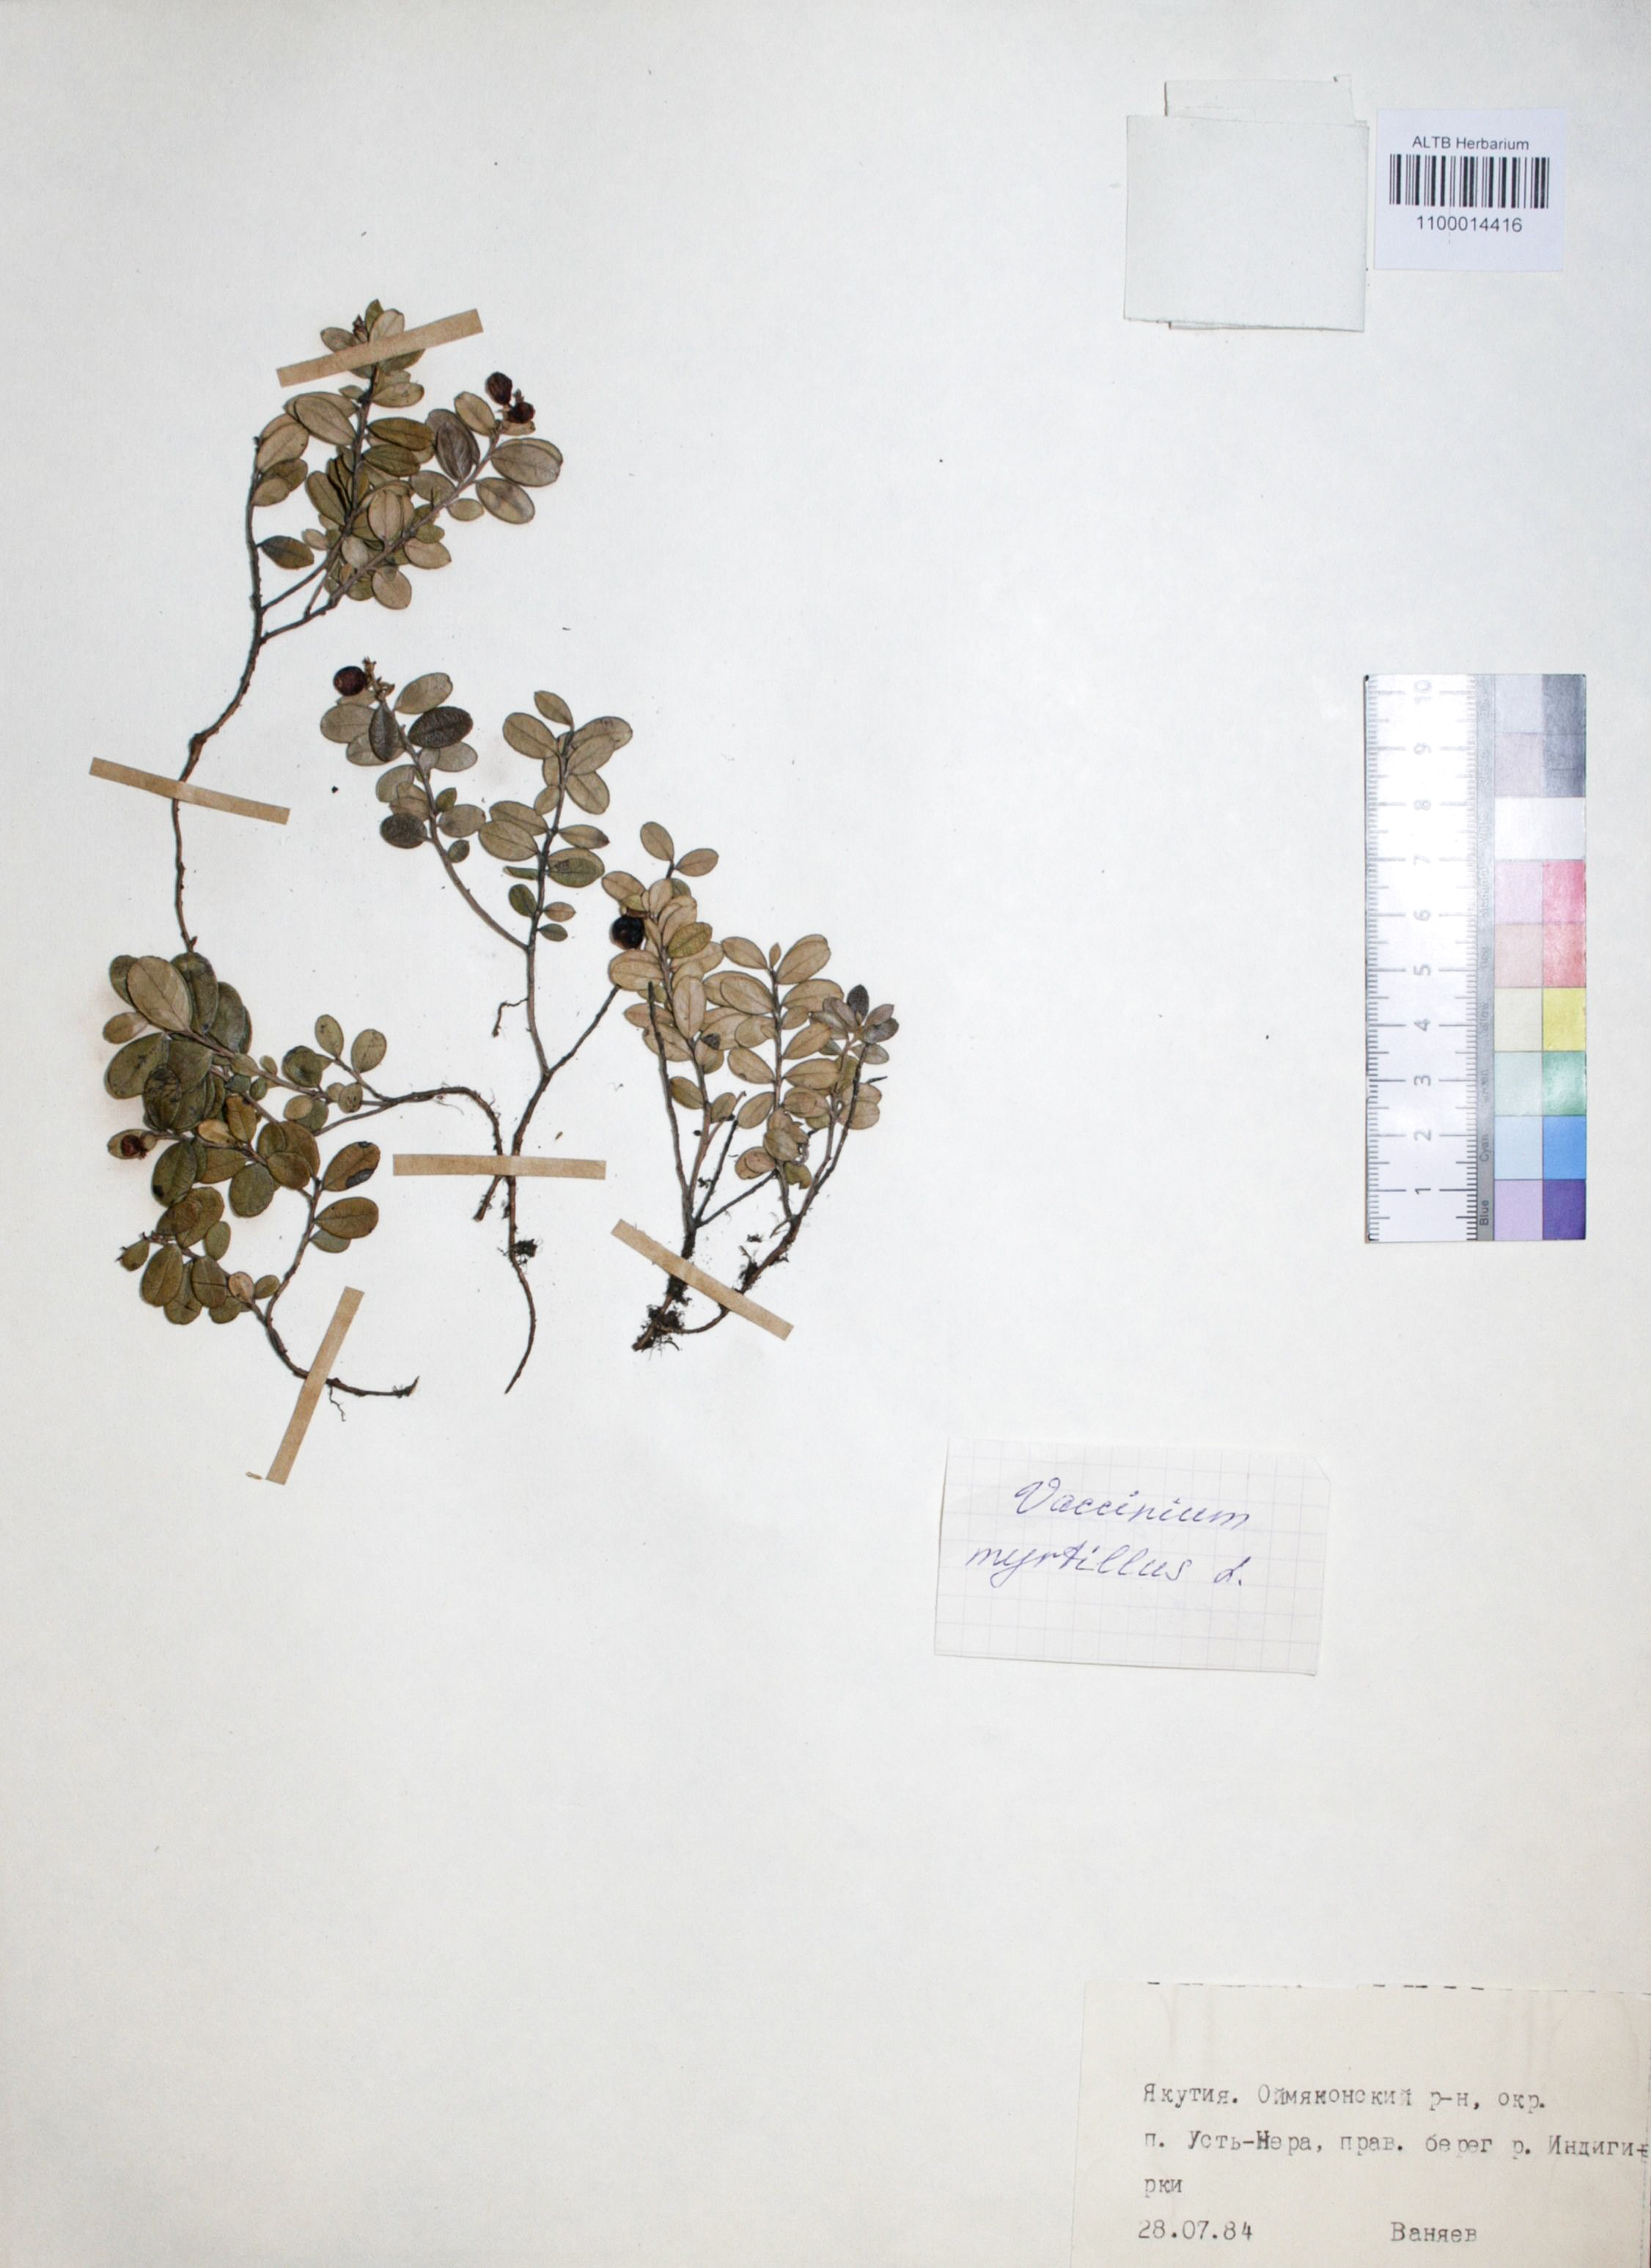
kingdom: Plantae
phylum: Tracheophyta
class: Magnoliopsida
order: Ericales
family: Ericaceae
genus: Vaccinium
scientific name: Vaccinium myrtillus
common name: Bilberry
